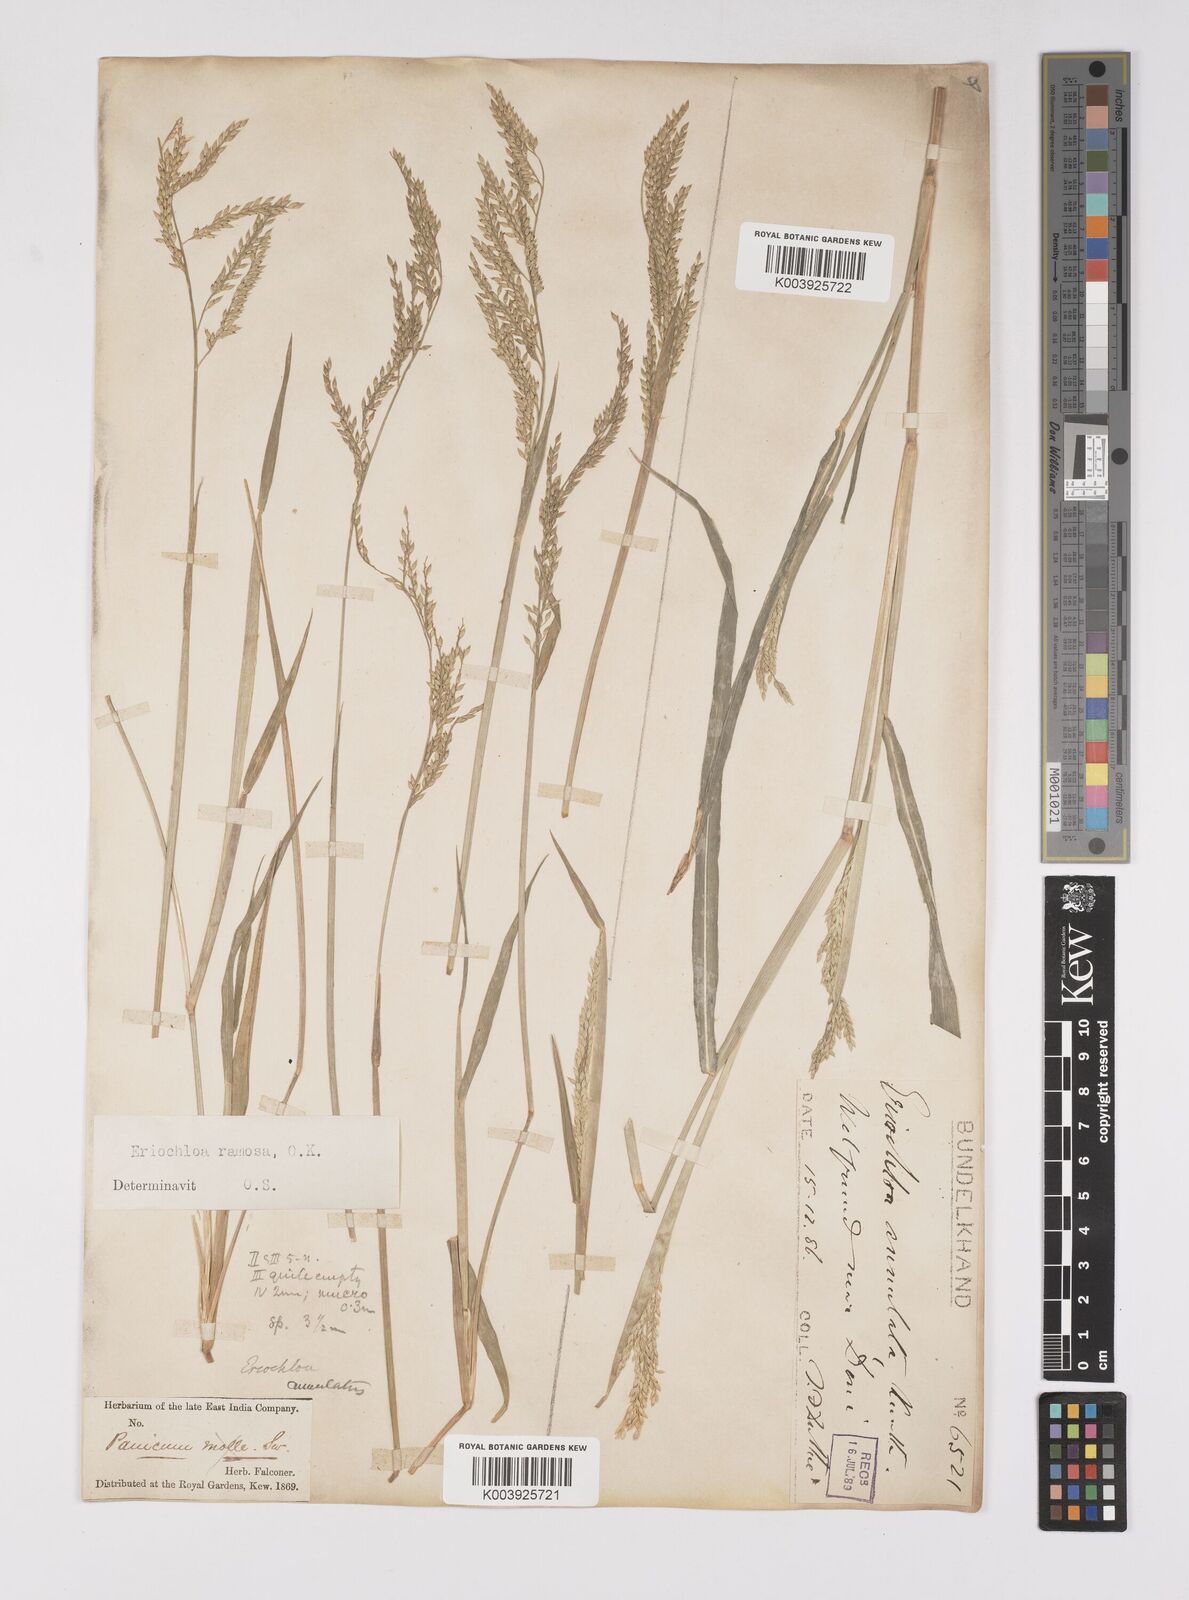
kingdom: Plantae
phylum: Tracheophyta
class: Liliopsida
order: Poales
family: Poaceae
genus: Eriochloa
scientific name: Eriochloa procera
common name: Spring grass
